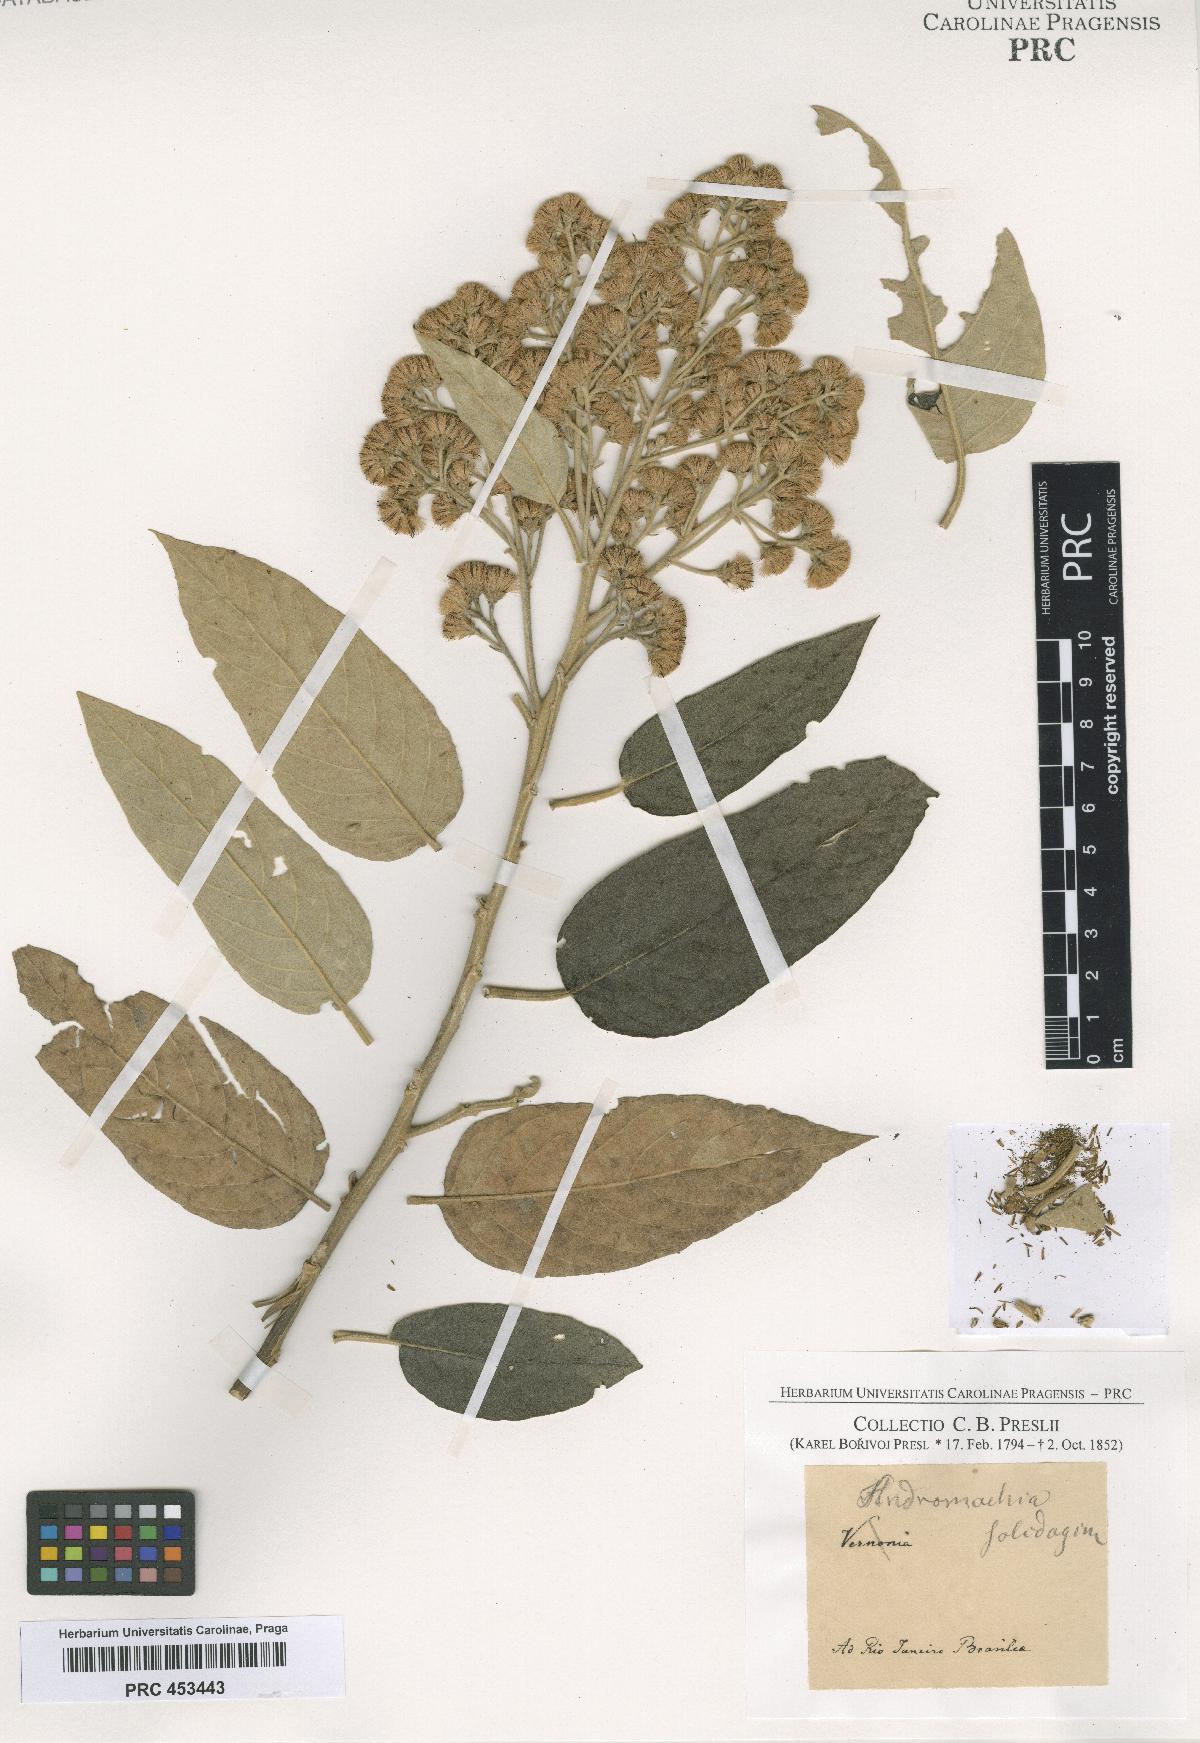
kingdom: Plantae
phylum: Tracheophyta
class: Magnoliopsida
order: Asterales
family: Asteraceae
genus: Andromachia
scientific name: Andromachia
